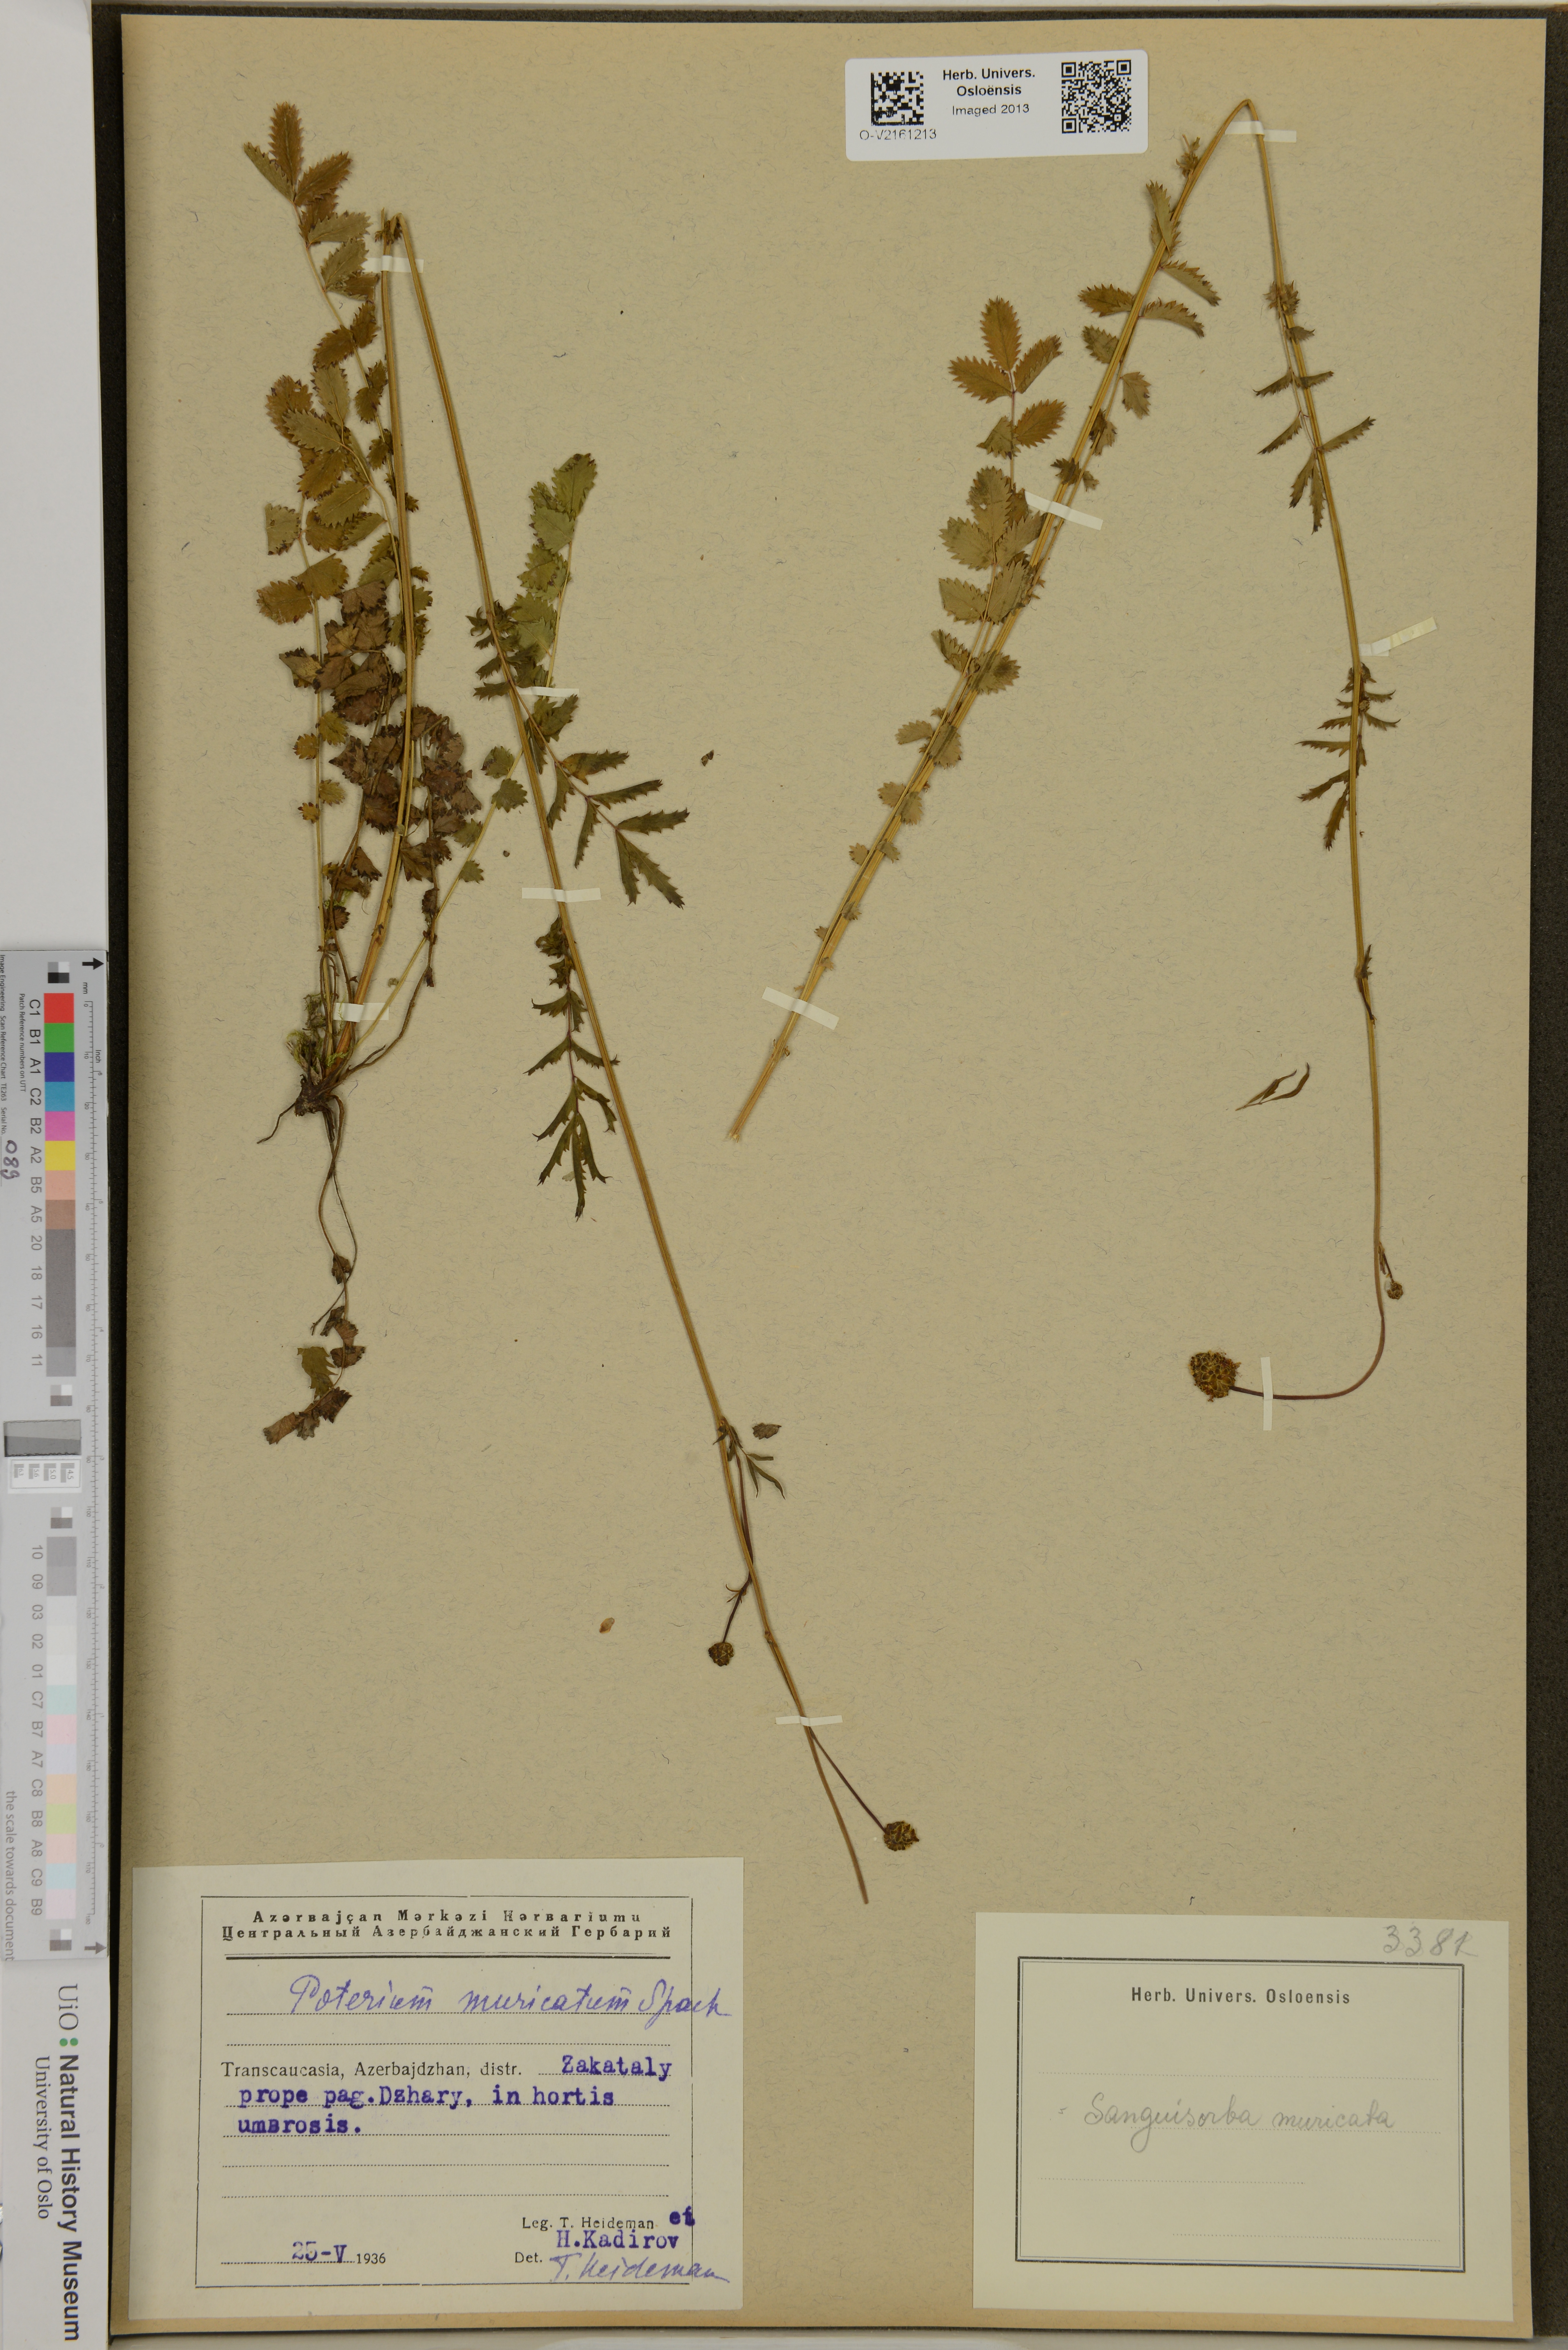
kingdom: Plantae
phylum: Tracheophyta
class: Magnoliopsida
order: Rosales
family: Rosaceae
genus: Poterium
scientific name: Poterium sanguisorba
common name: Salad burnet
